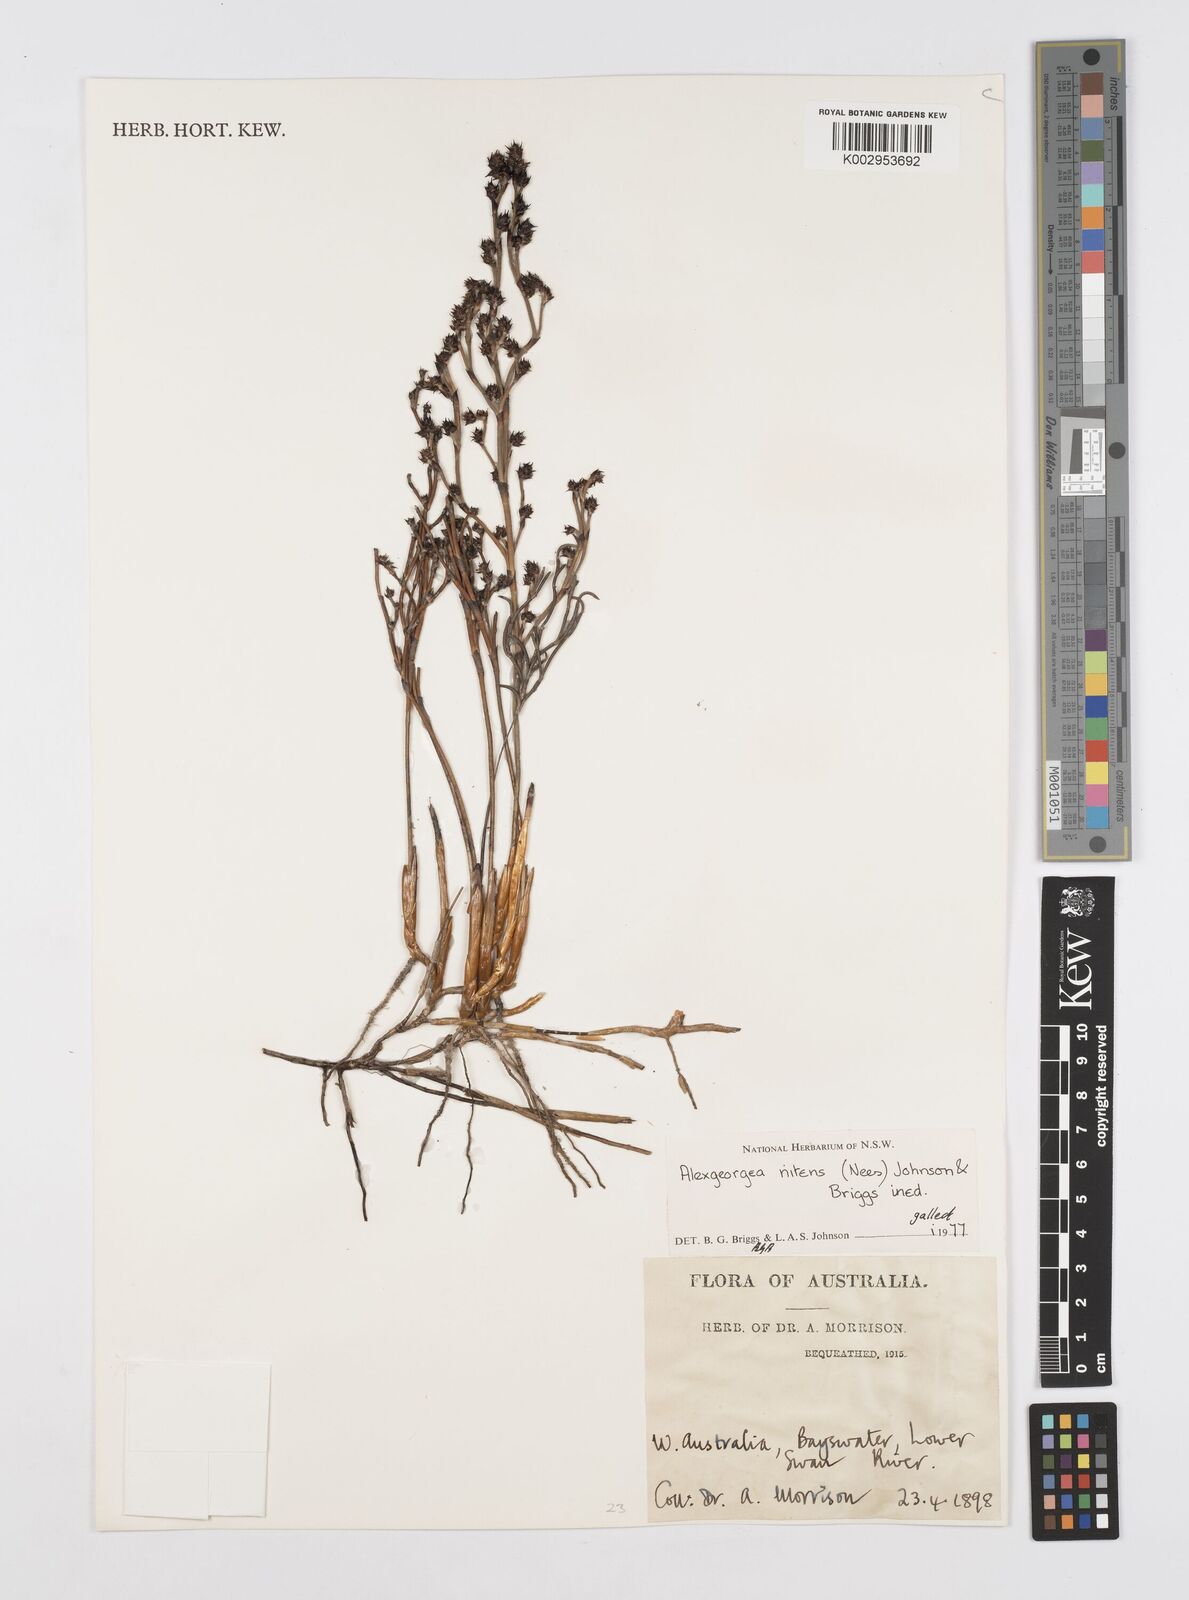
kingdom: Plantae
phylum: Tracheophyta
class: Liliopsida
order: Poales
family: Restionaceae
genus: Alexgeorgea
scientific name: Alexgeorgea nitens
